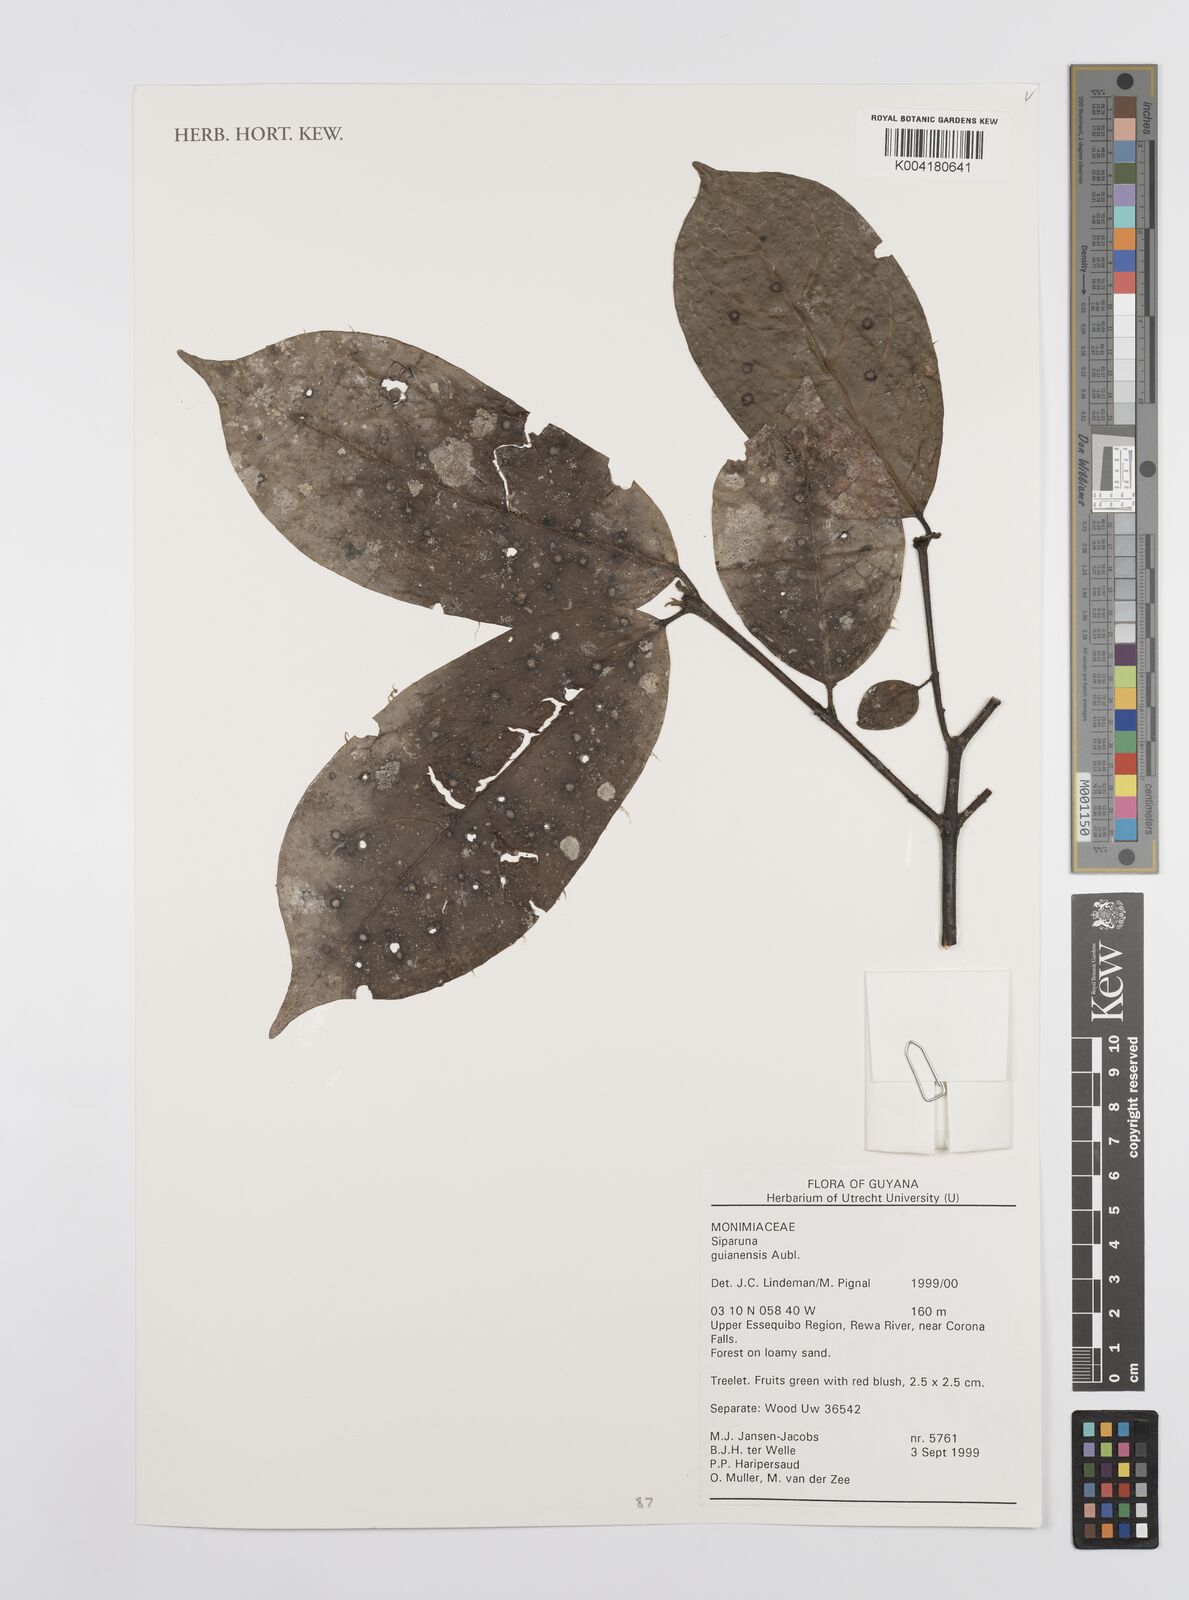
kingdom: Plantae
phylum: Tracheophyta
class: Magnoliopsida
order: Laurales
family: Siparunaceae
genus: Siparuna
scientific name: Siparuna guianensis
